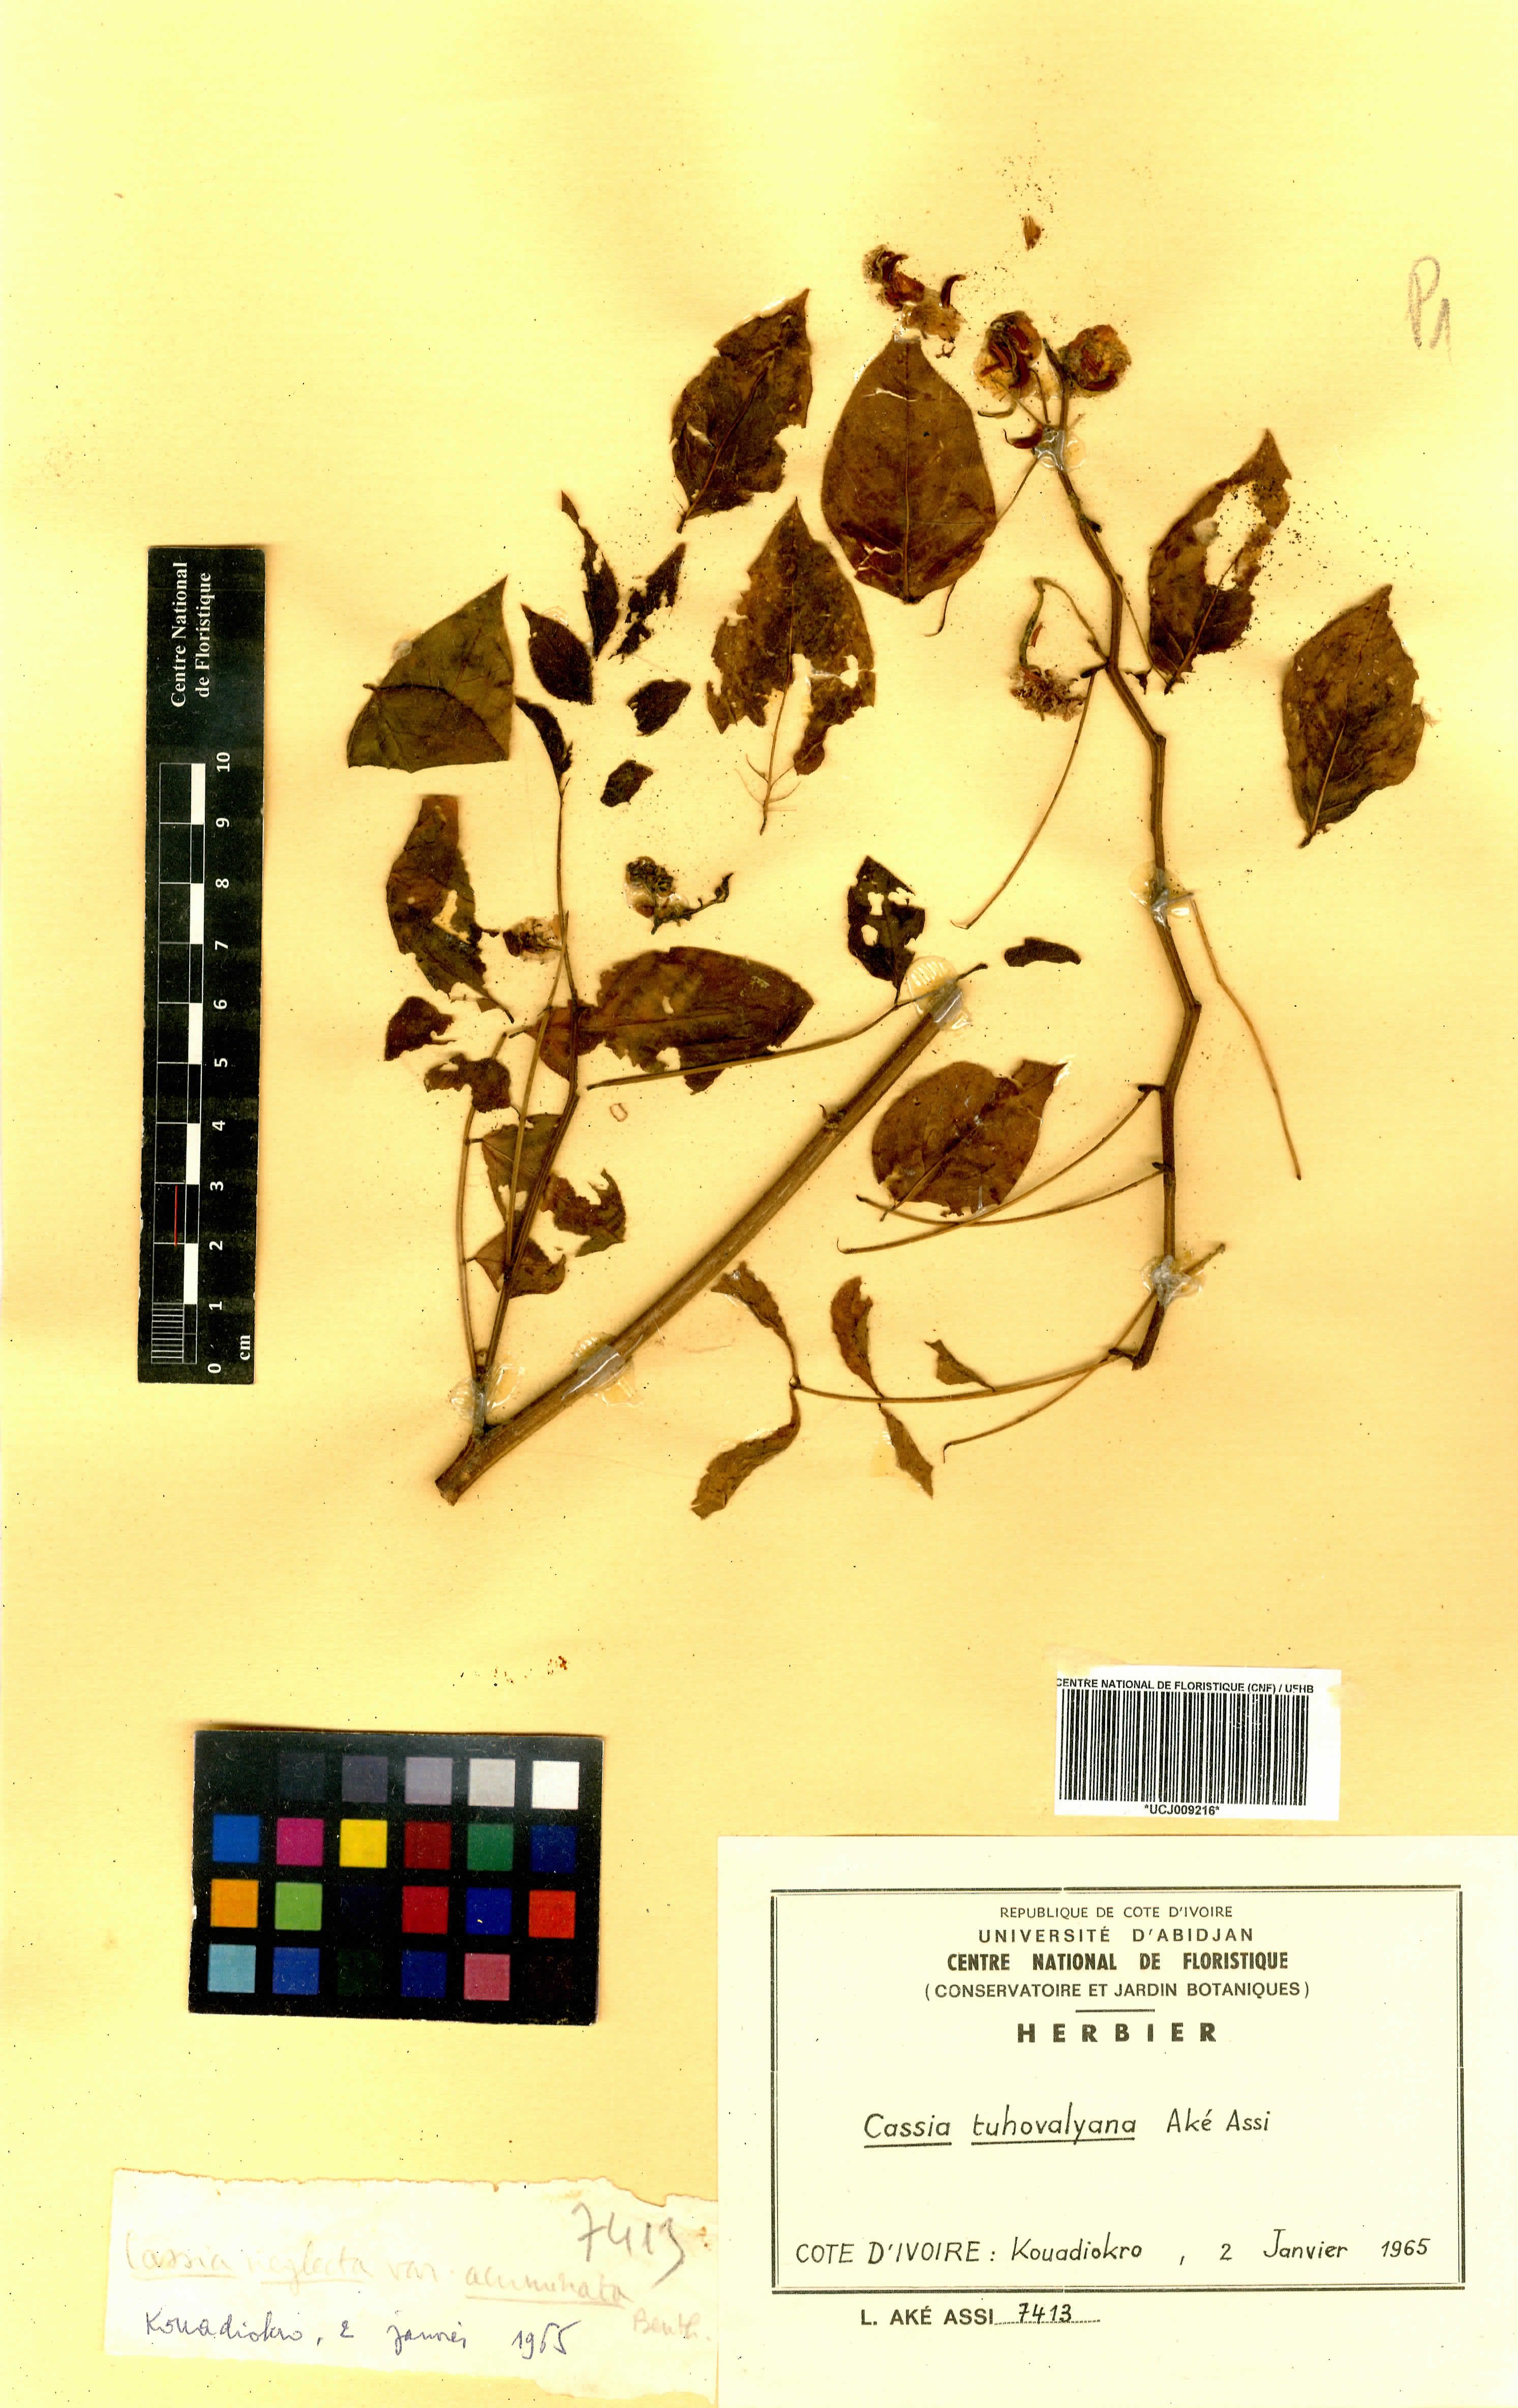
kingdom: Plantae
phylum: Tracheophyta
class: Magnoliopsida
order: Fabales
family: Fabaceae
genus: Senna
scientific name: Senna tuhovalyana
